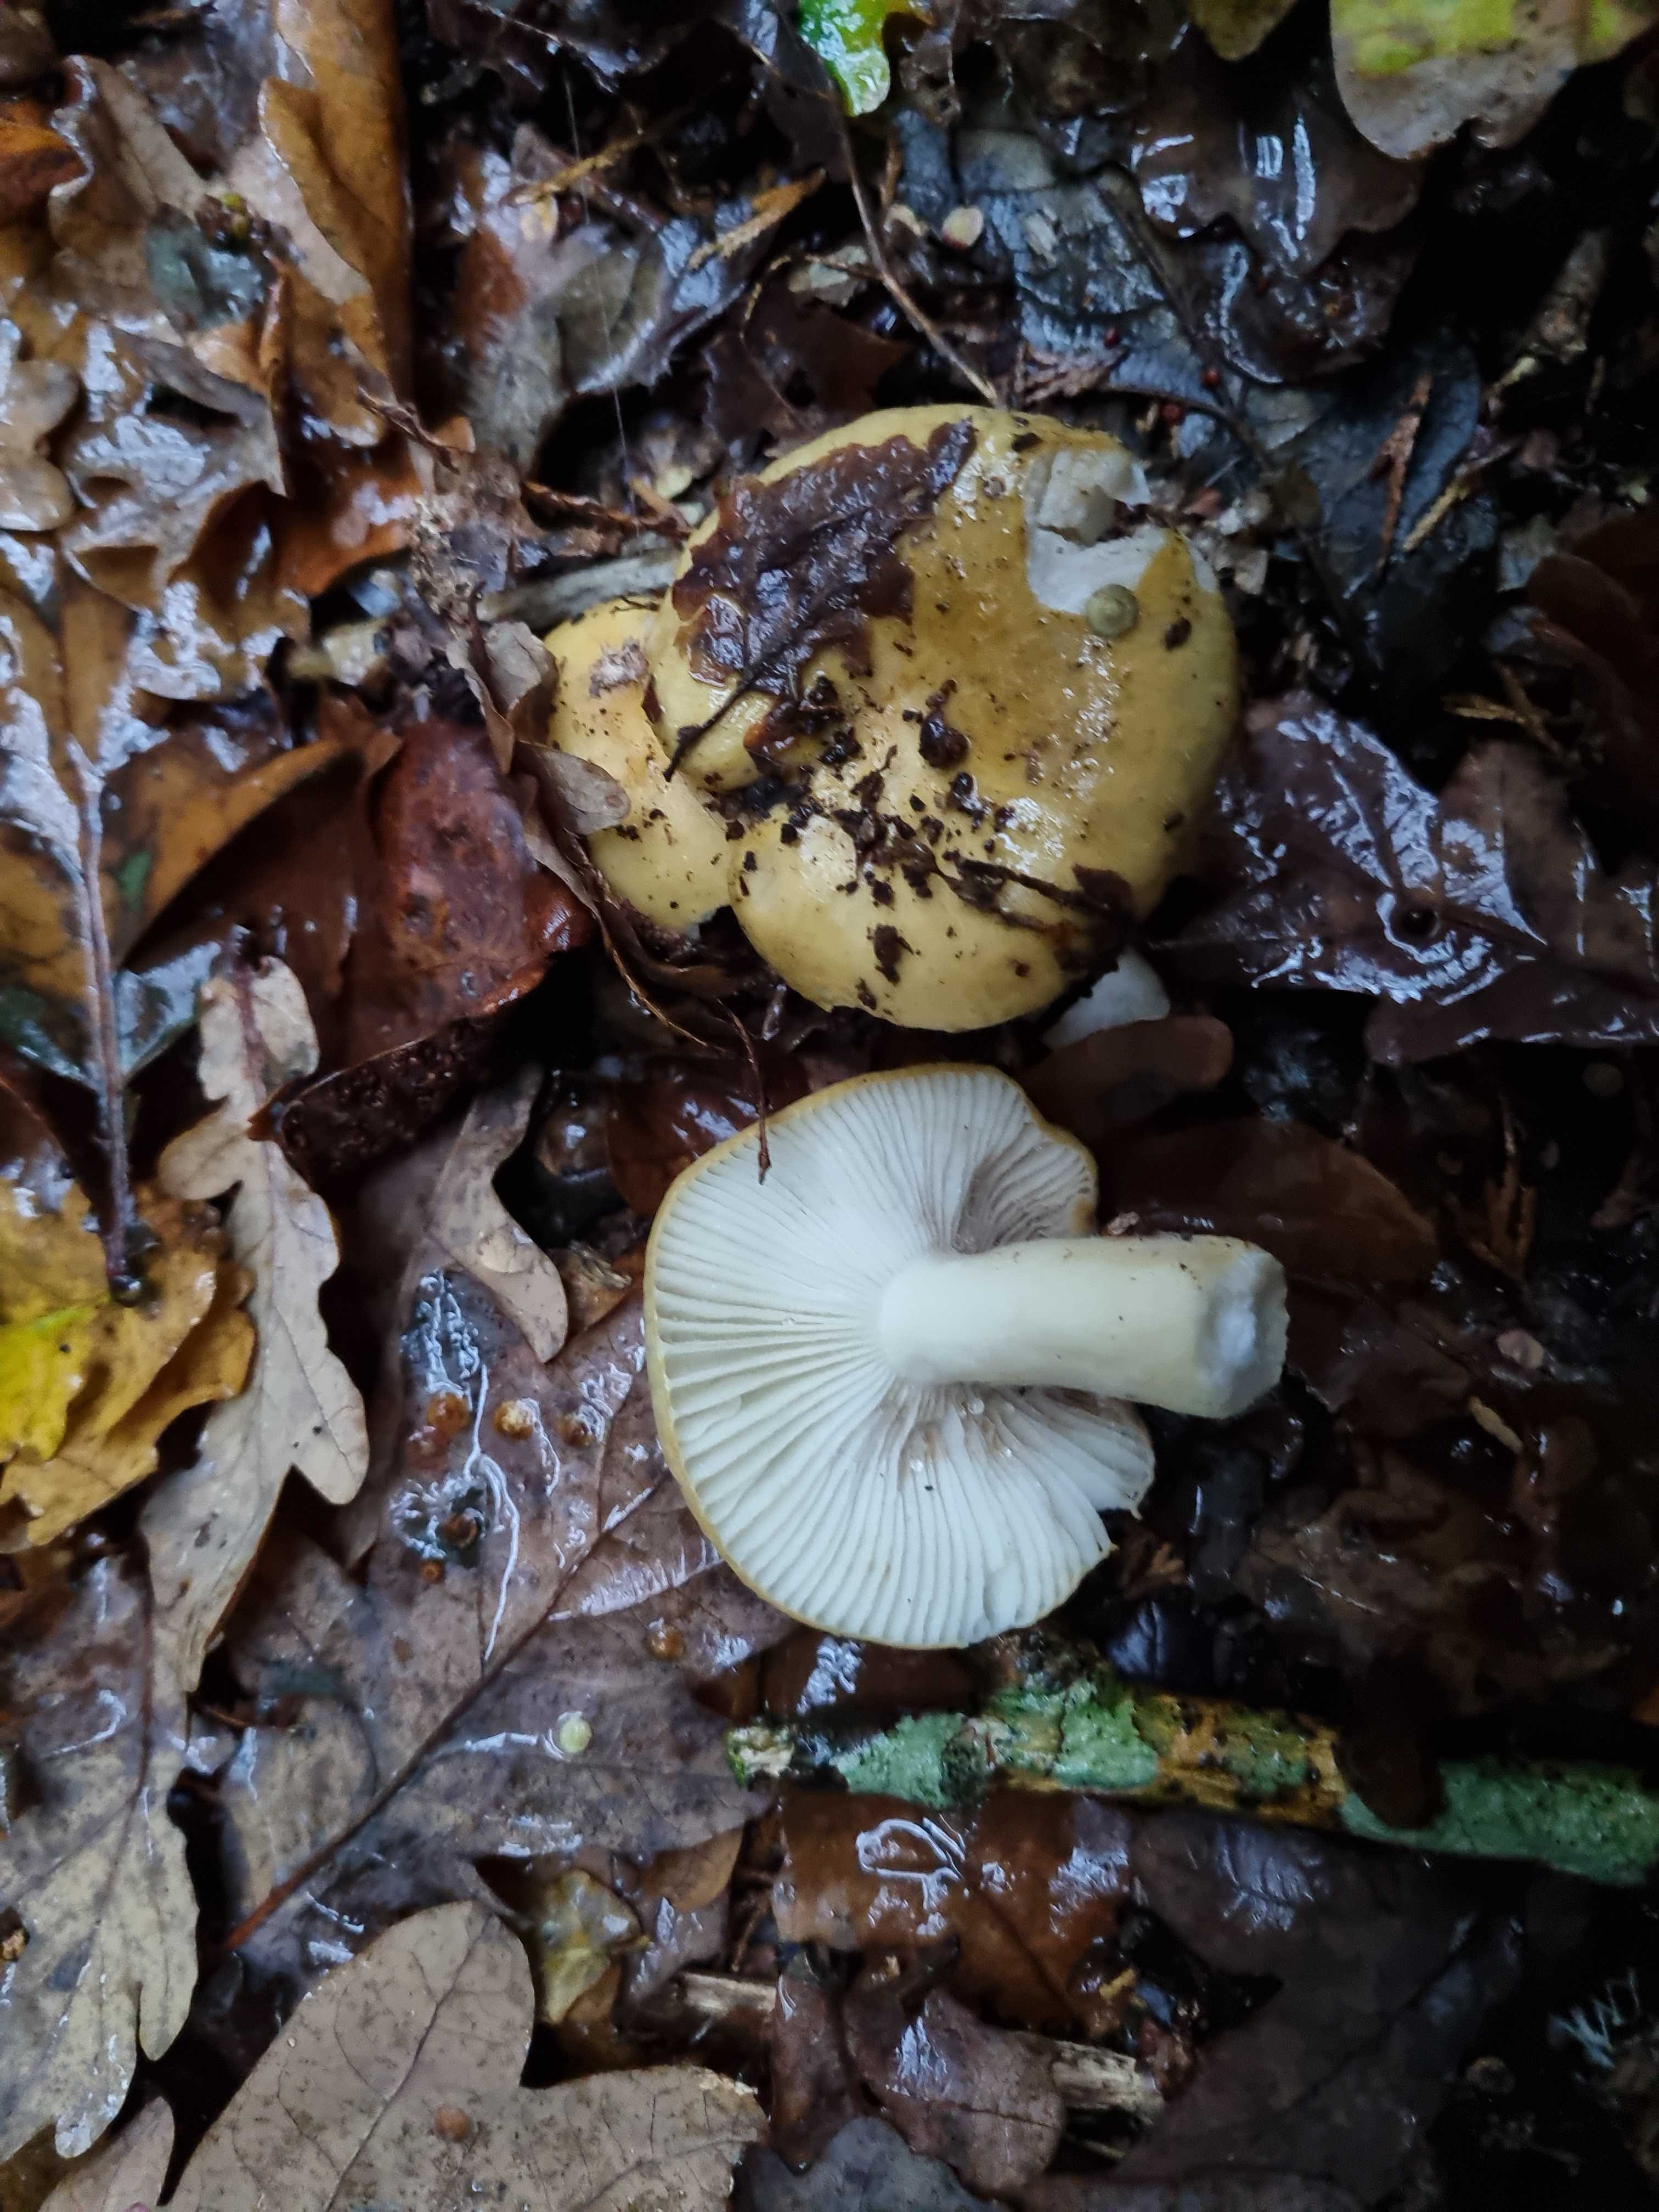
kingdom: Fungi
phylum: Basidiomycota
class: Agaricomycetes
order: Russulales
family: Russulaceae
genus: Russula
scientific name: Russula ochroleuca
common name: okkergul skørhat
